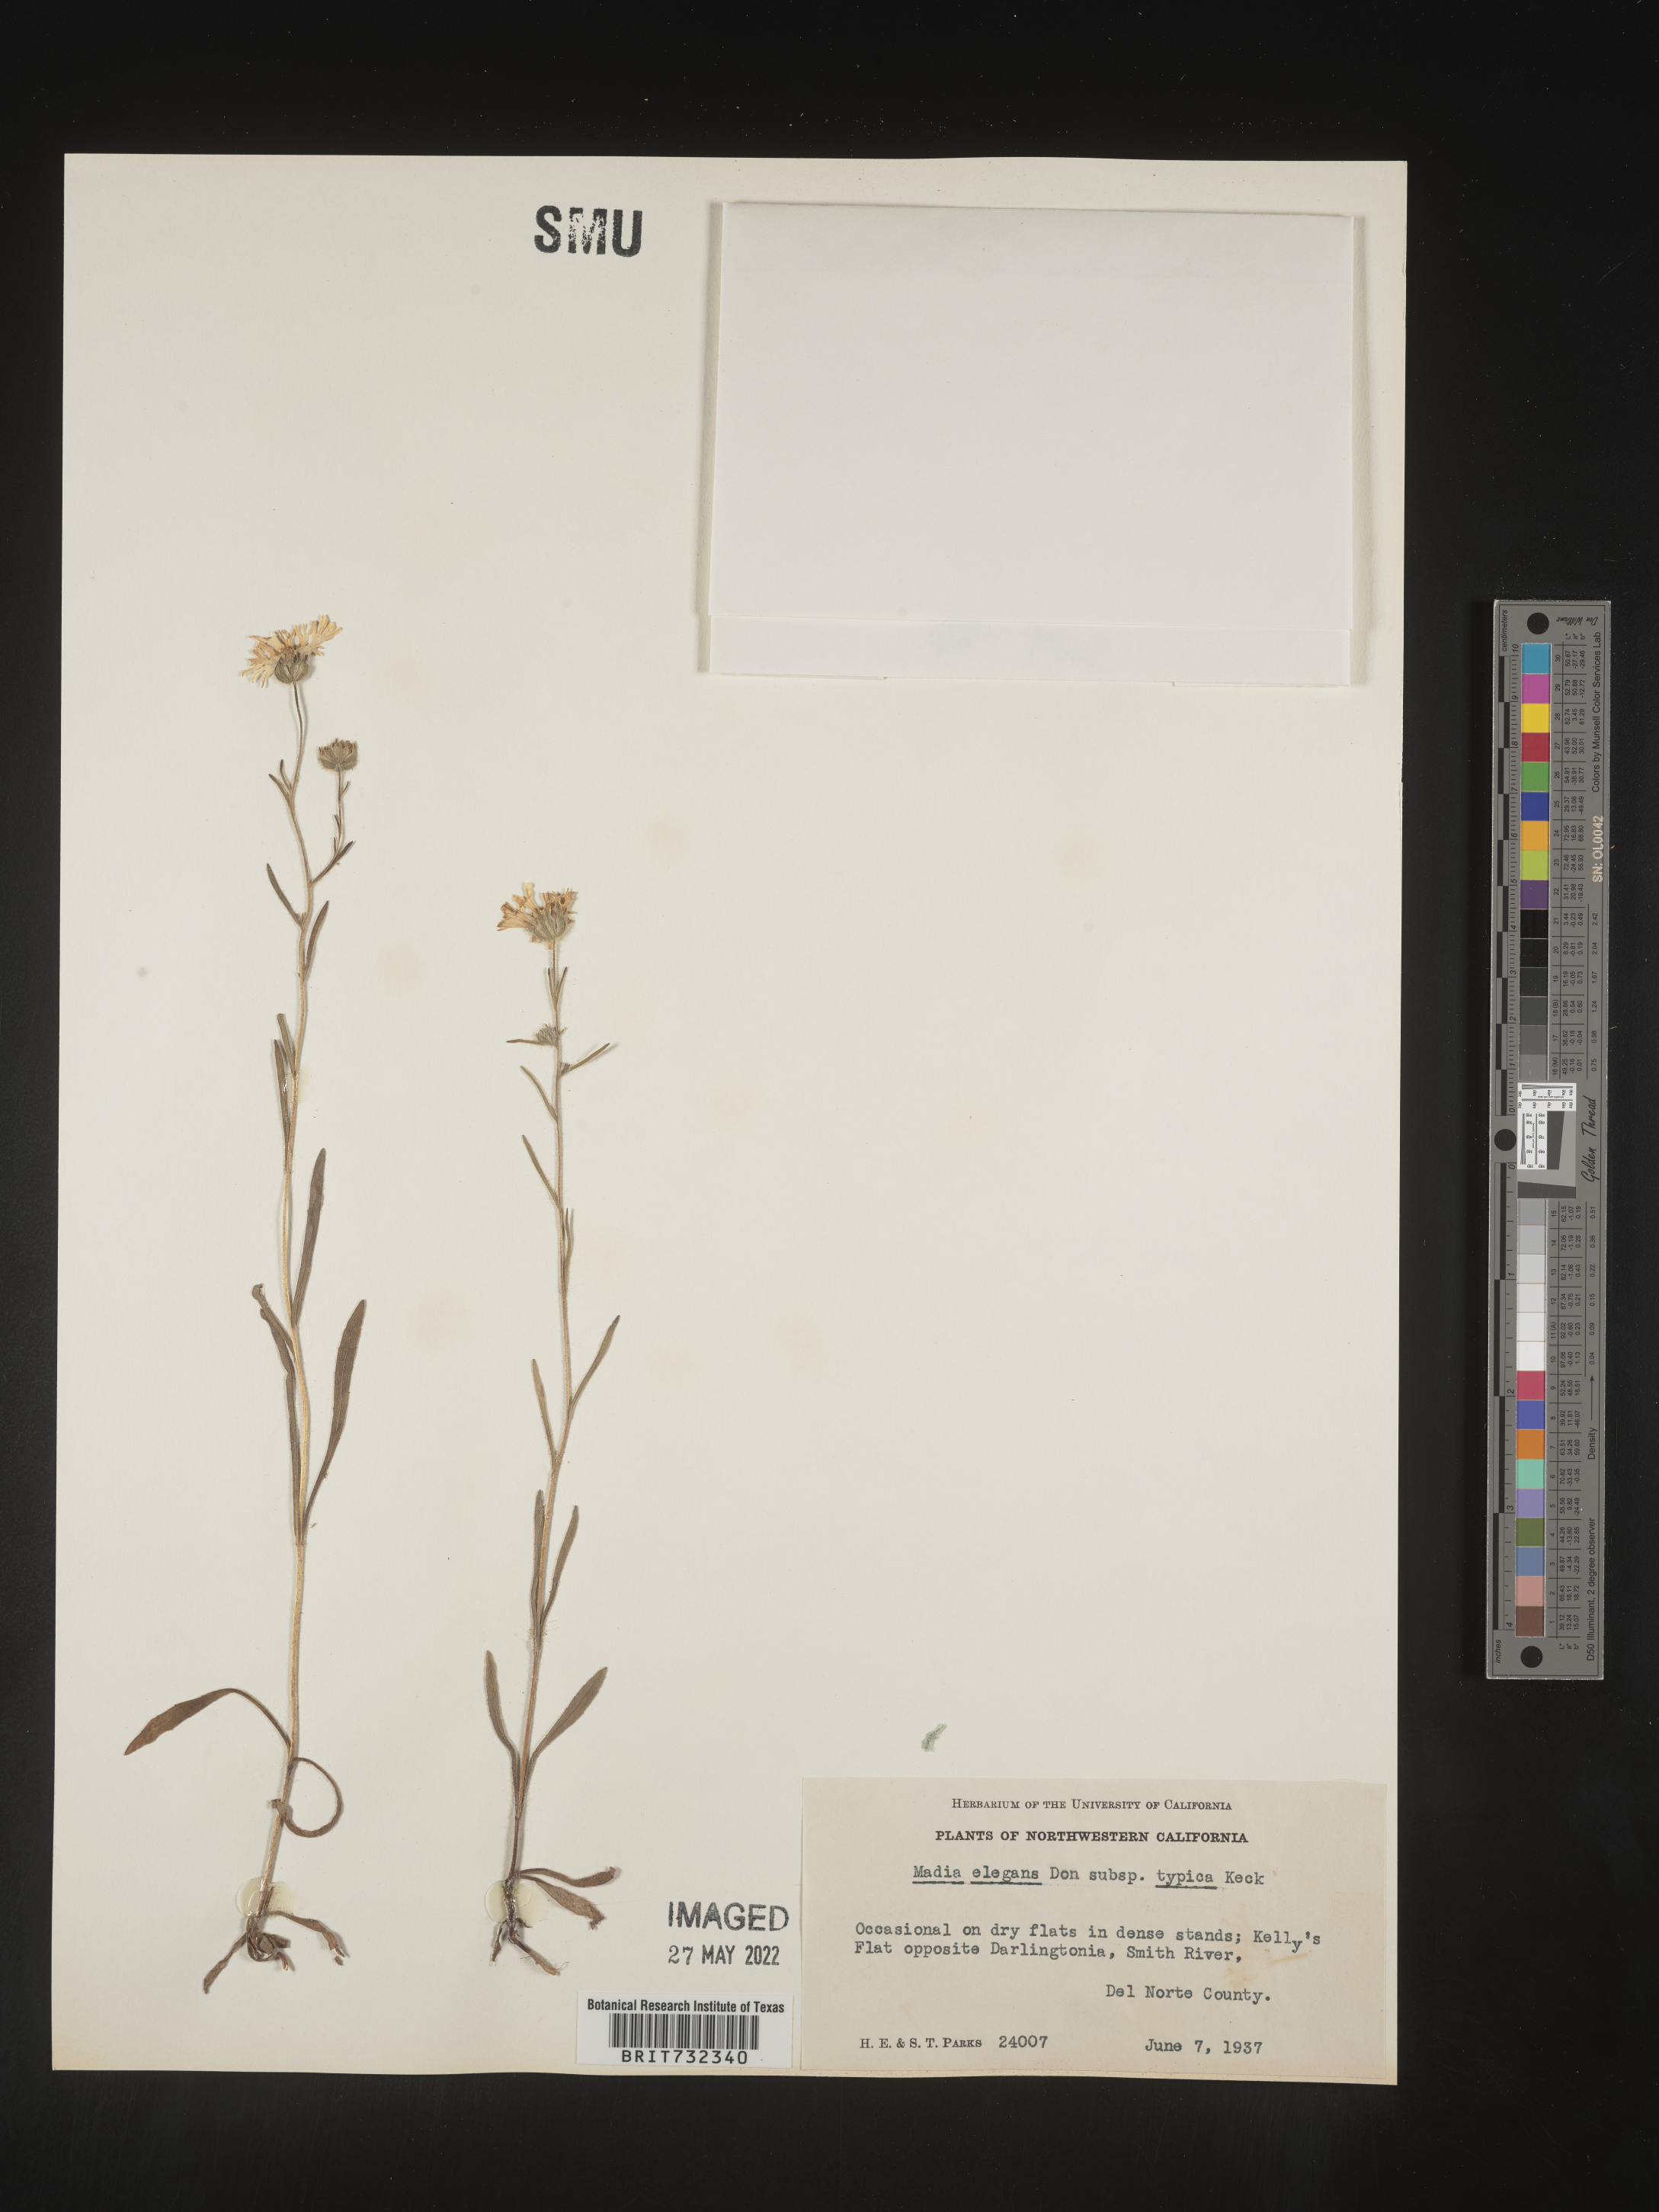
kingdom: Plantae
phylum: Tracheophyta
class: Magnoliopsida
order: Asterales
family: Asteraceae
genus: Madia
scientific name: Madia
